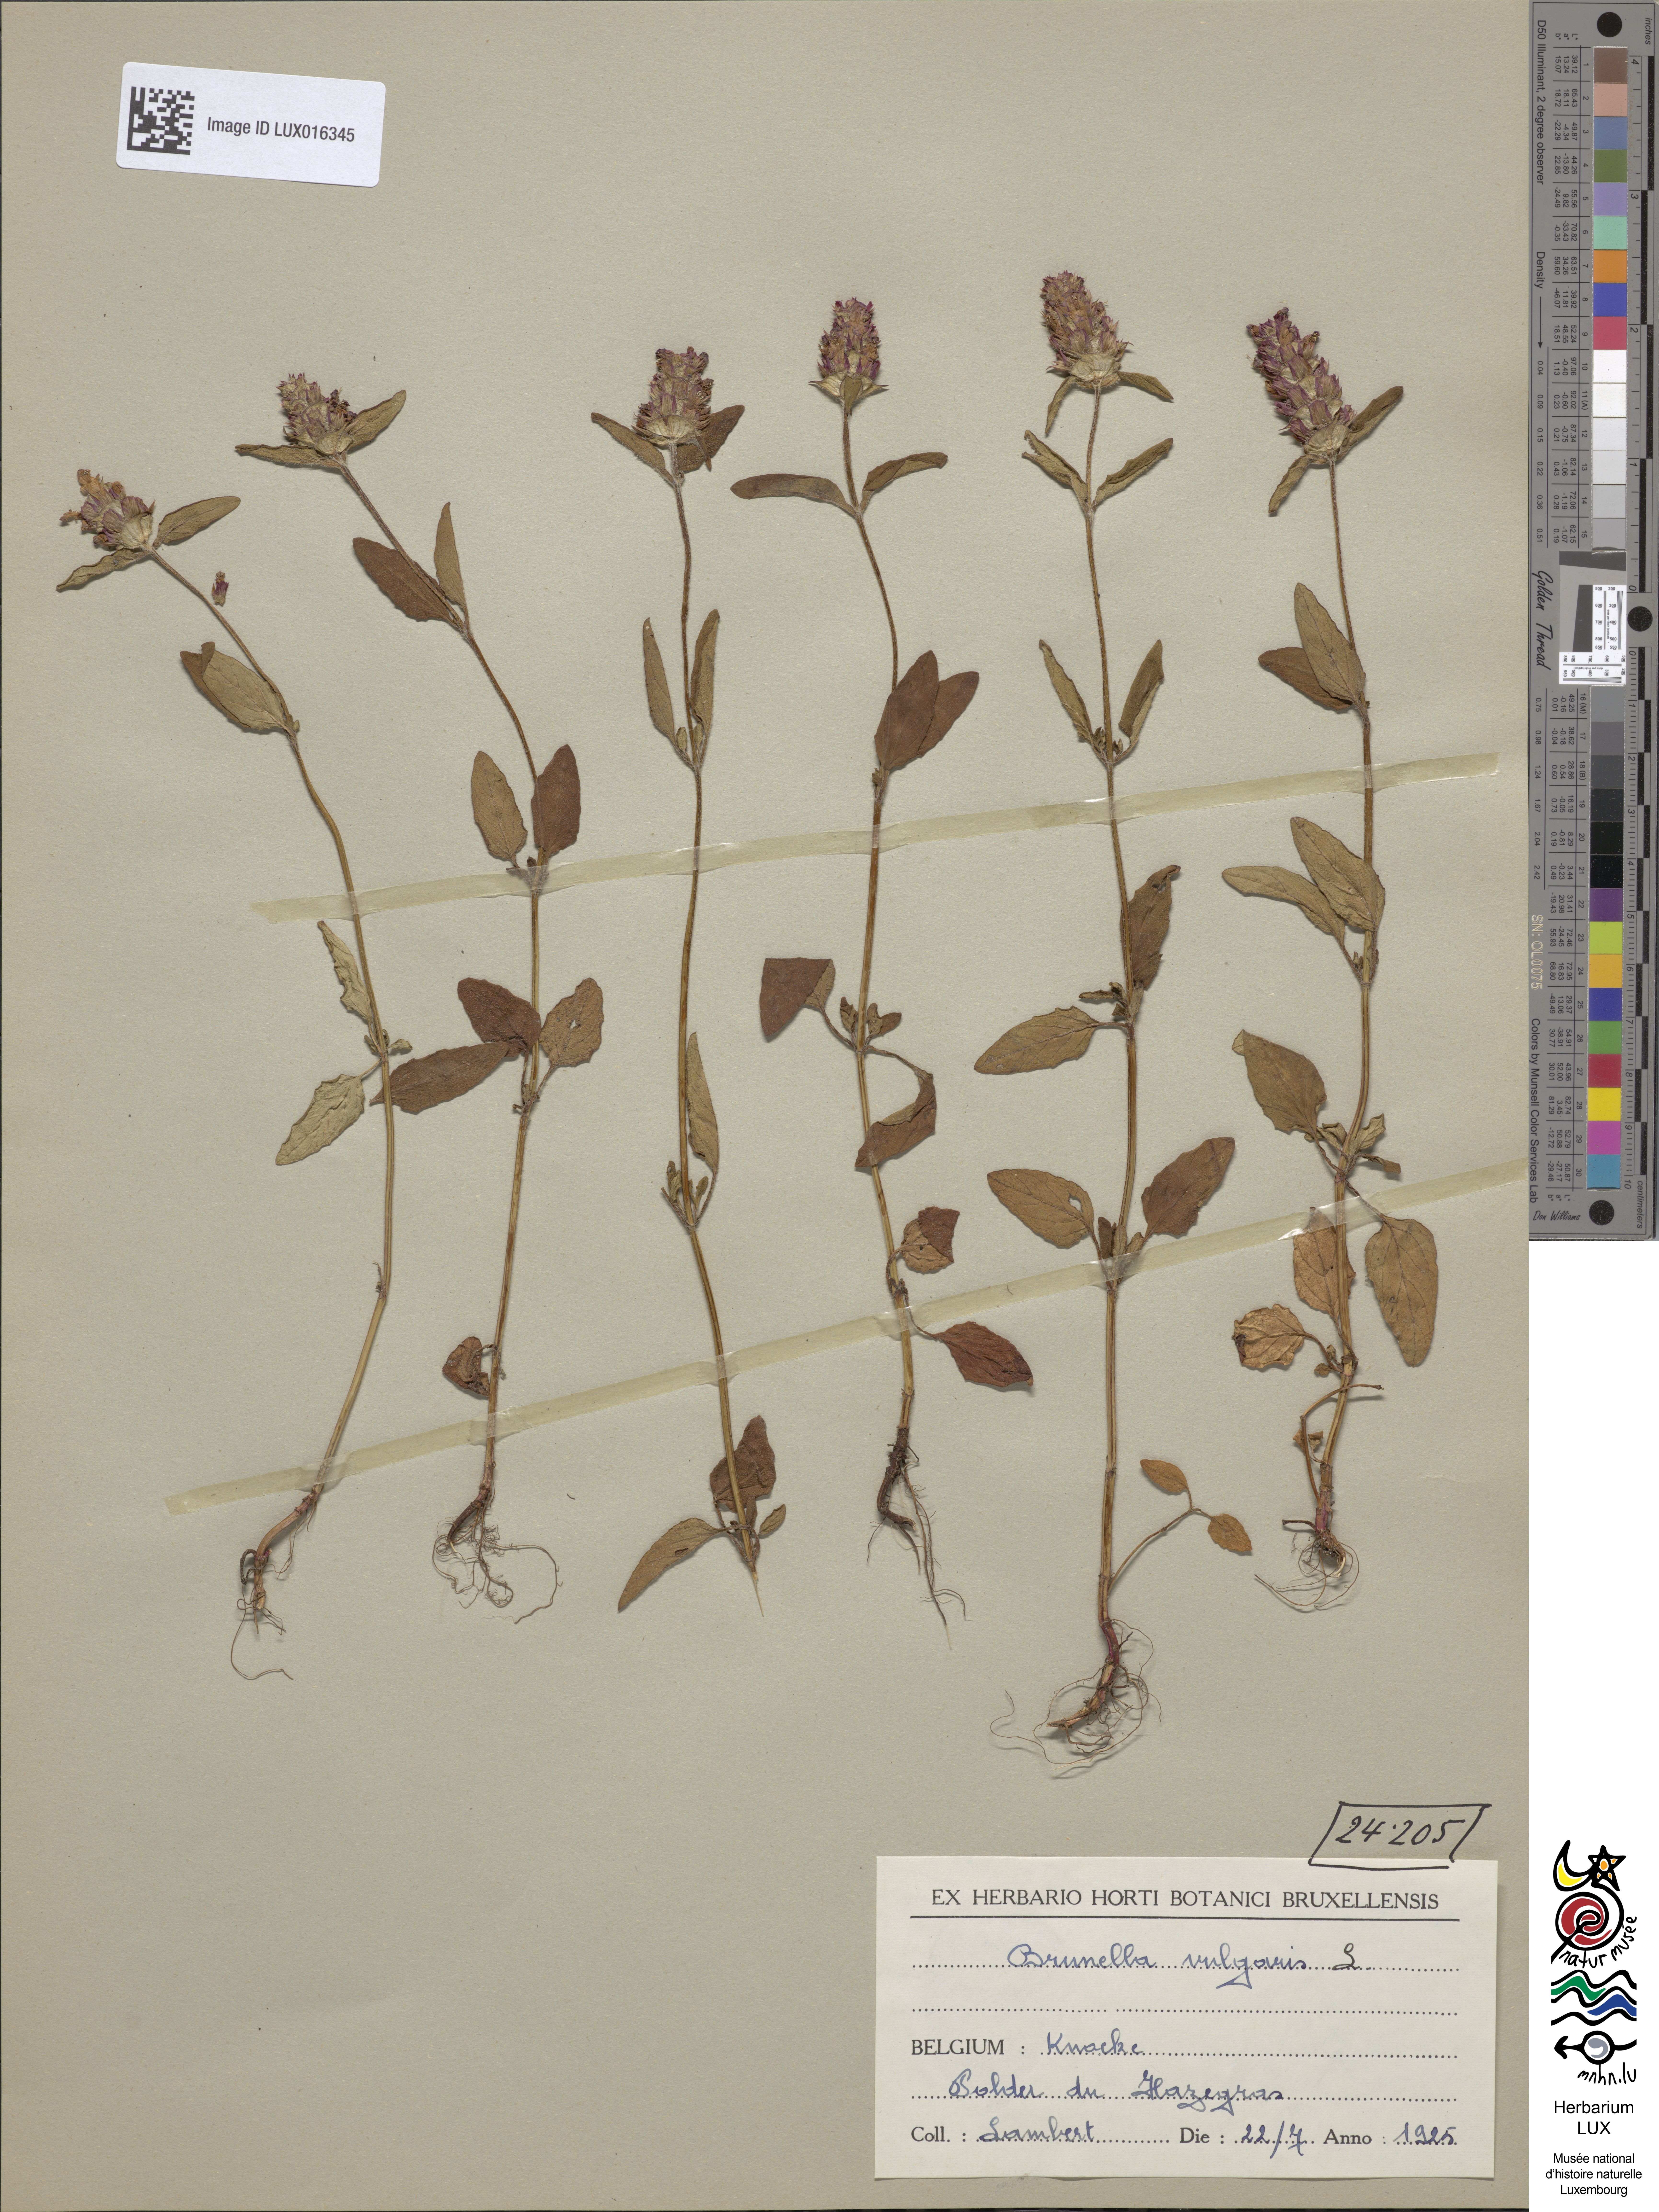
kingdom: Plantae
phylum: Tracheophyta
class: Magnoliopsida
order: Lamiales
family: Lamiaceae
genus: Prunella
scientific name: Prunella vulgaris
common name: Heal-all
